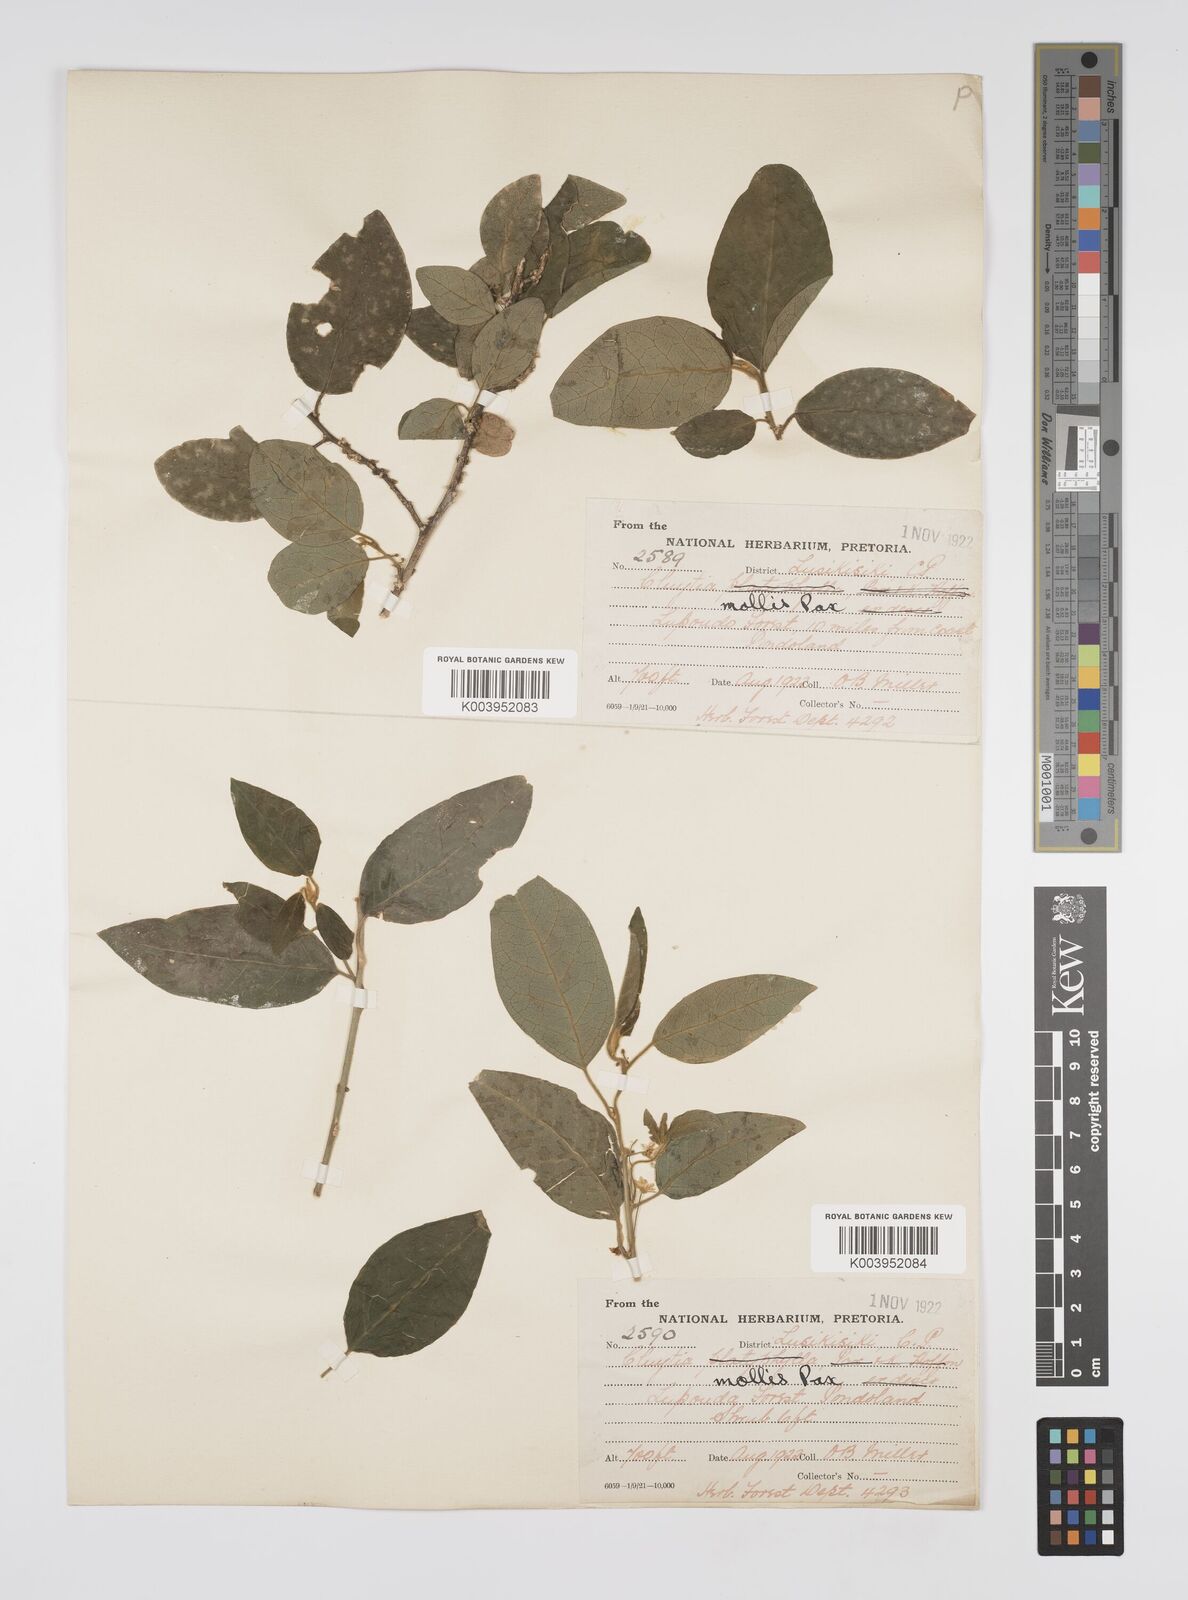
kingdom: Plantae
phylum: Tracheophyta
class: Magnoliopsida
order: Malpighiales
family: Peraceae
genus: Clutia
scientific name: Clutia abyssinica
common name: Large lightning bush
